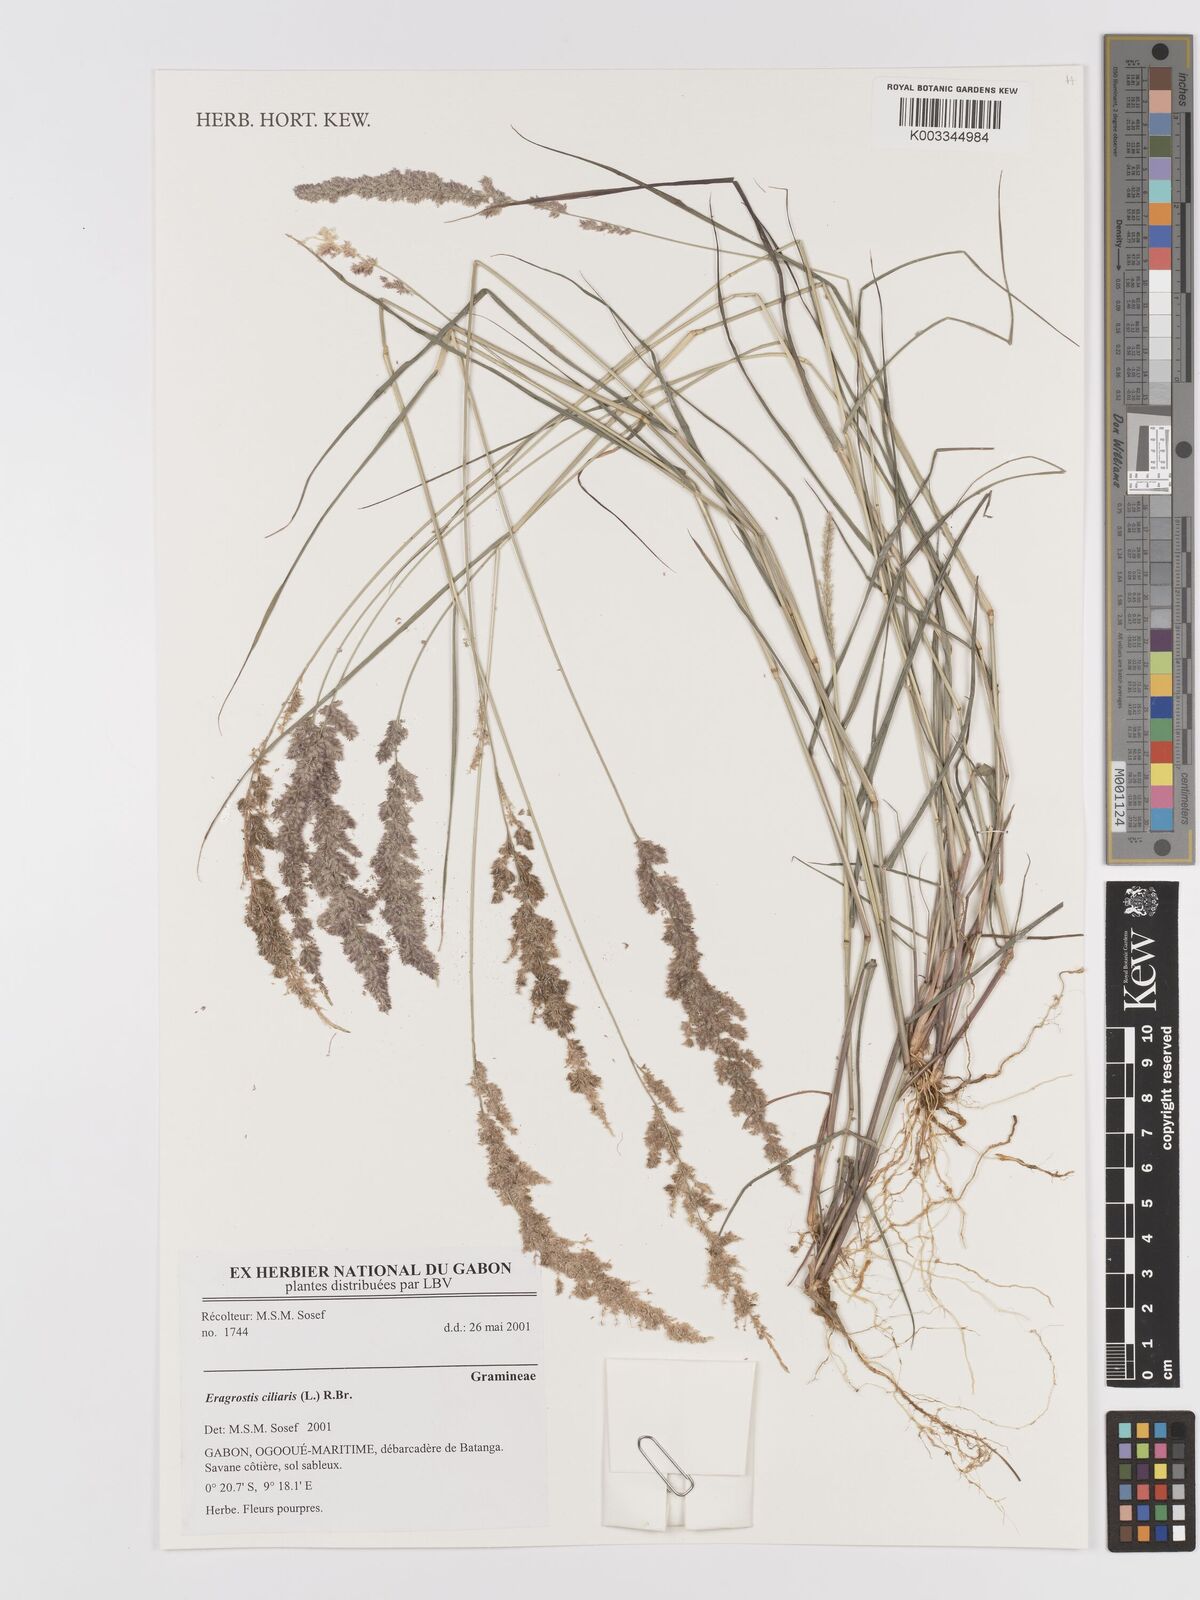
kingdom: Plantae
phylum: Tracheophyta
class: Liliopsida
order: Poales
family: Poaceae
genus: Eragrostis
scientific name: Eragrostis ciliaris
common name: Gophertail lovegrass
